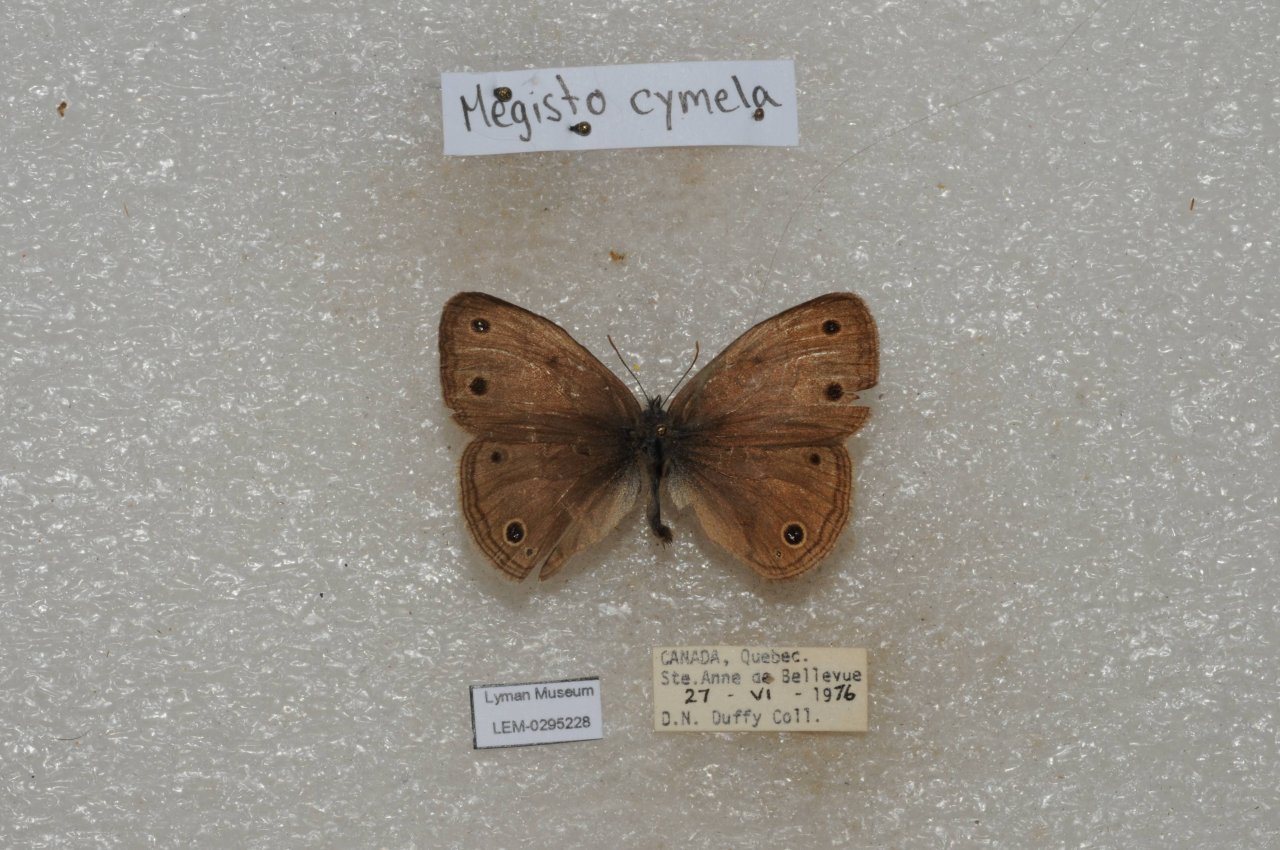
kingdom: Animalia
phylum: Arthropoda
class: Insecta
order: Lepidoptera
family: Nymphalidae
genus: Euptychia
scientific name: Euptychia cymela
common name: Little Wood Satyr
